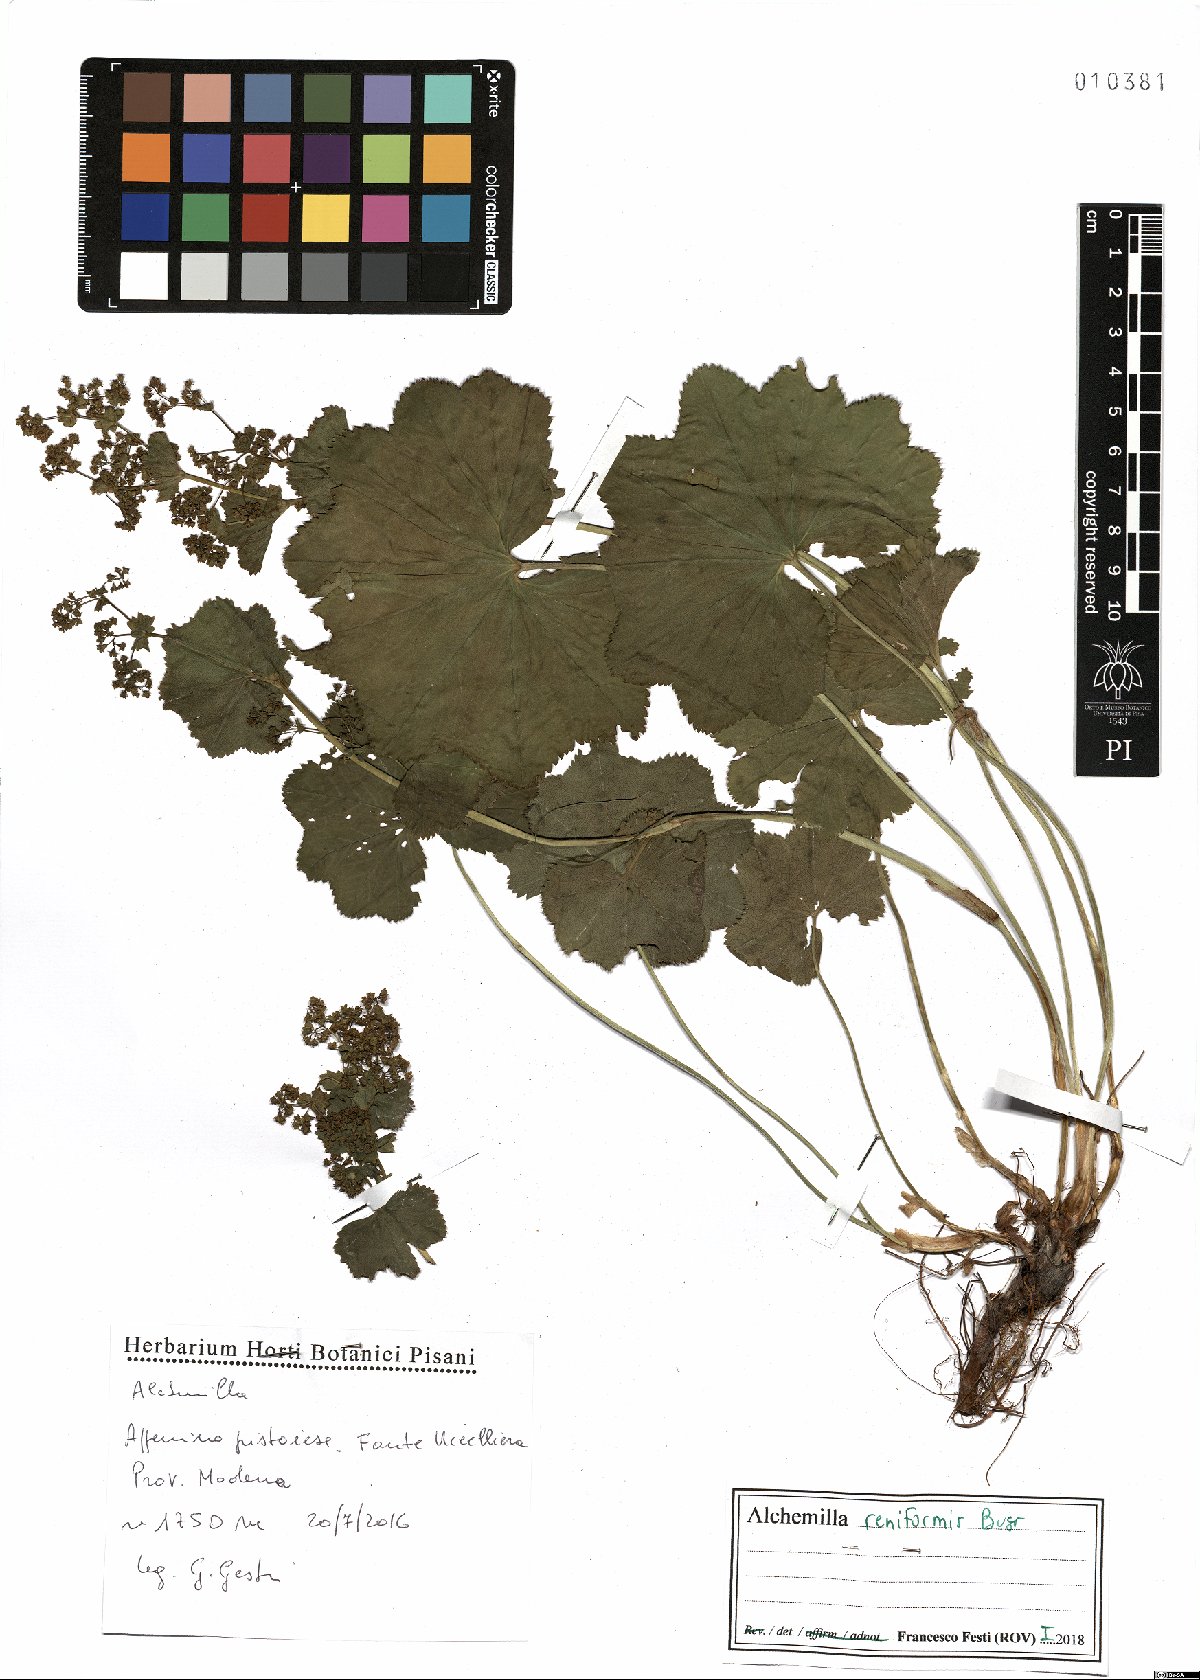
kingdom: Plantae
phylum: Tracheophyta
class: Magnoliopsida
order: Rosales
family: Rosaceae
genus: Alchemilla
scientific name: Alchemilla reniformis
